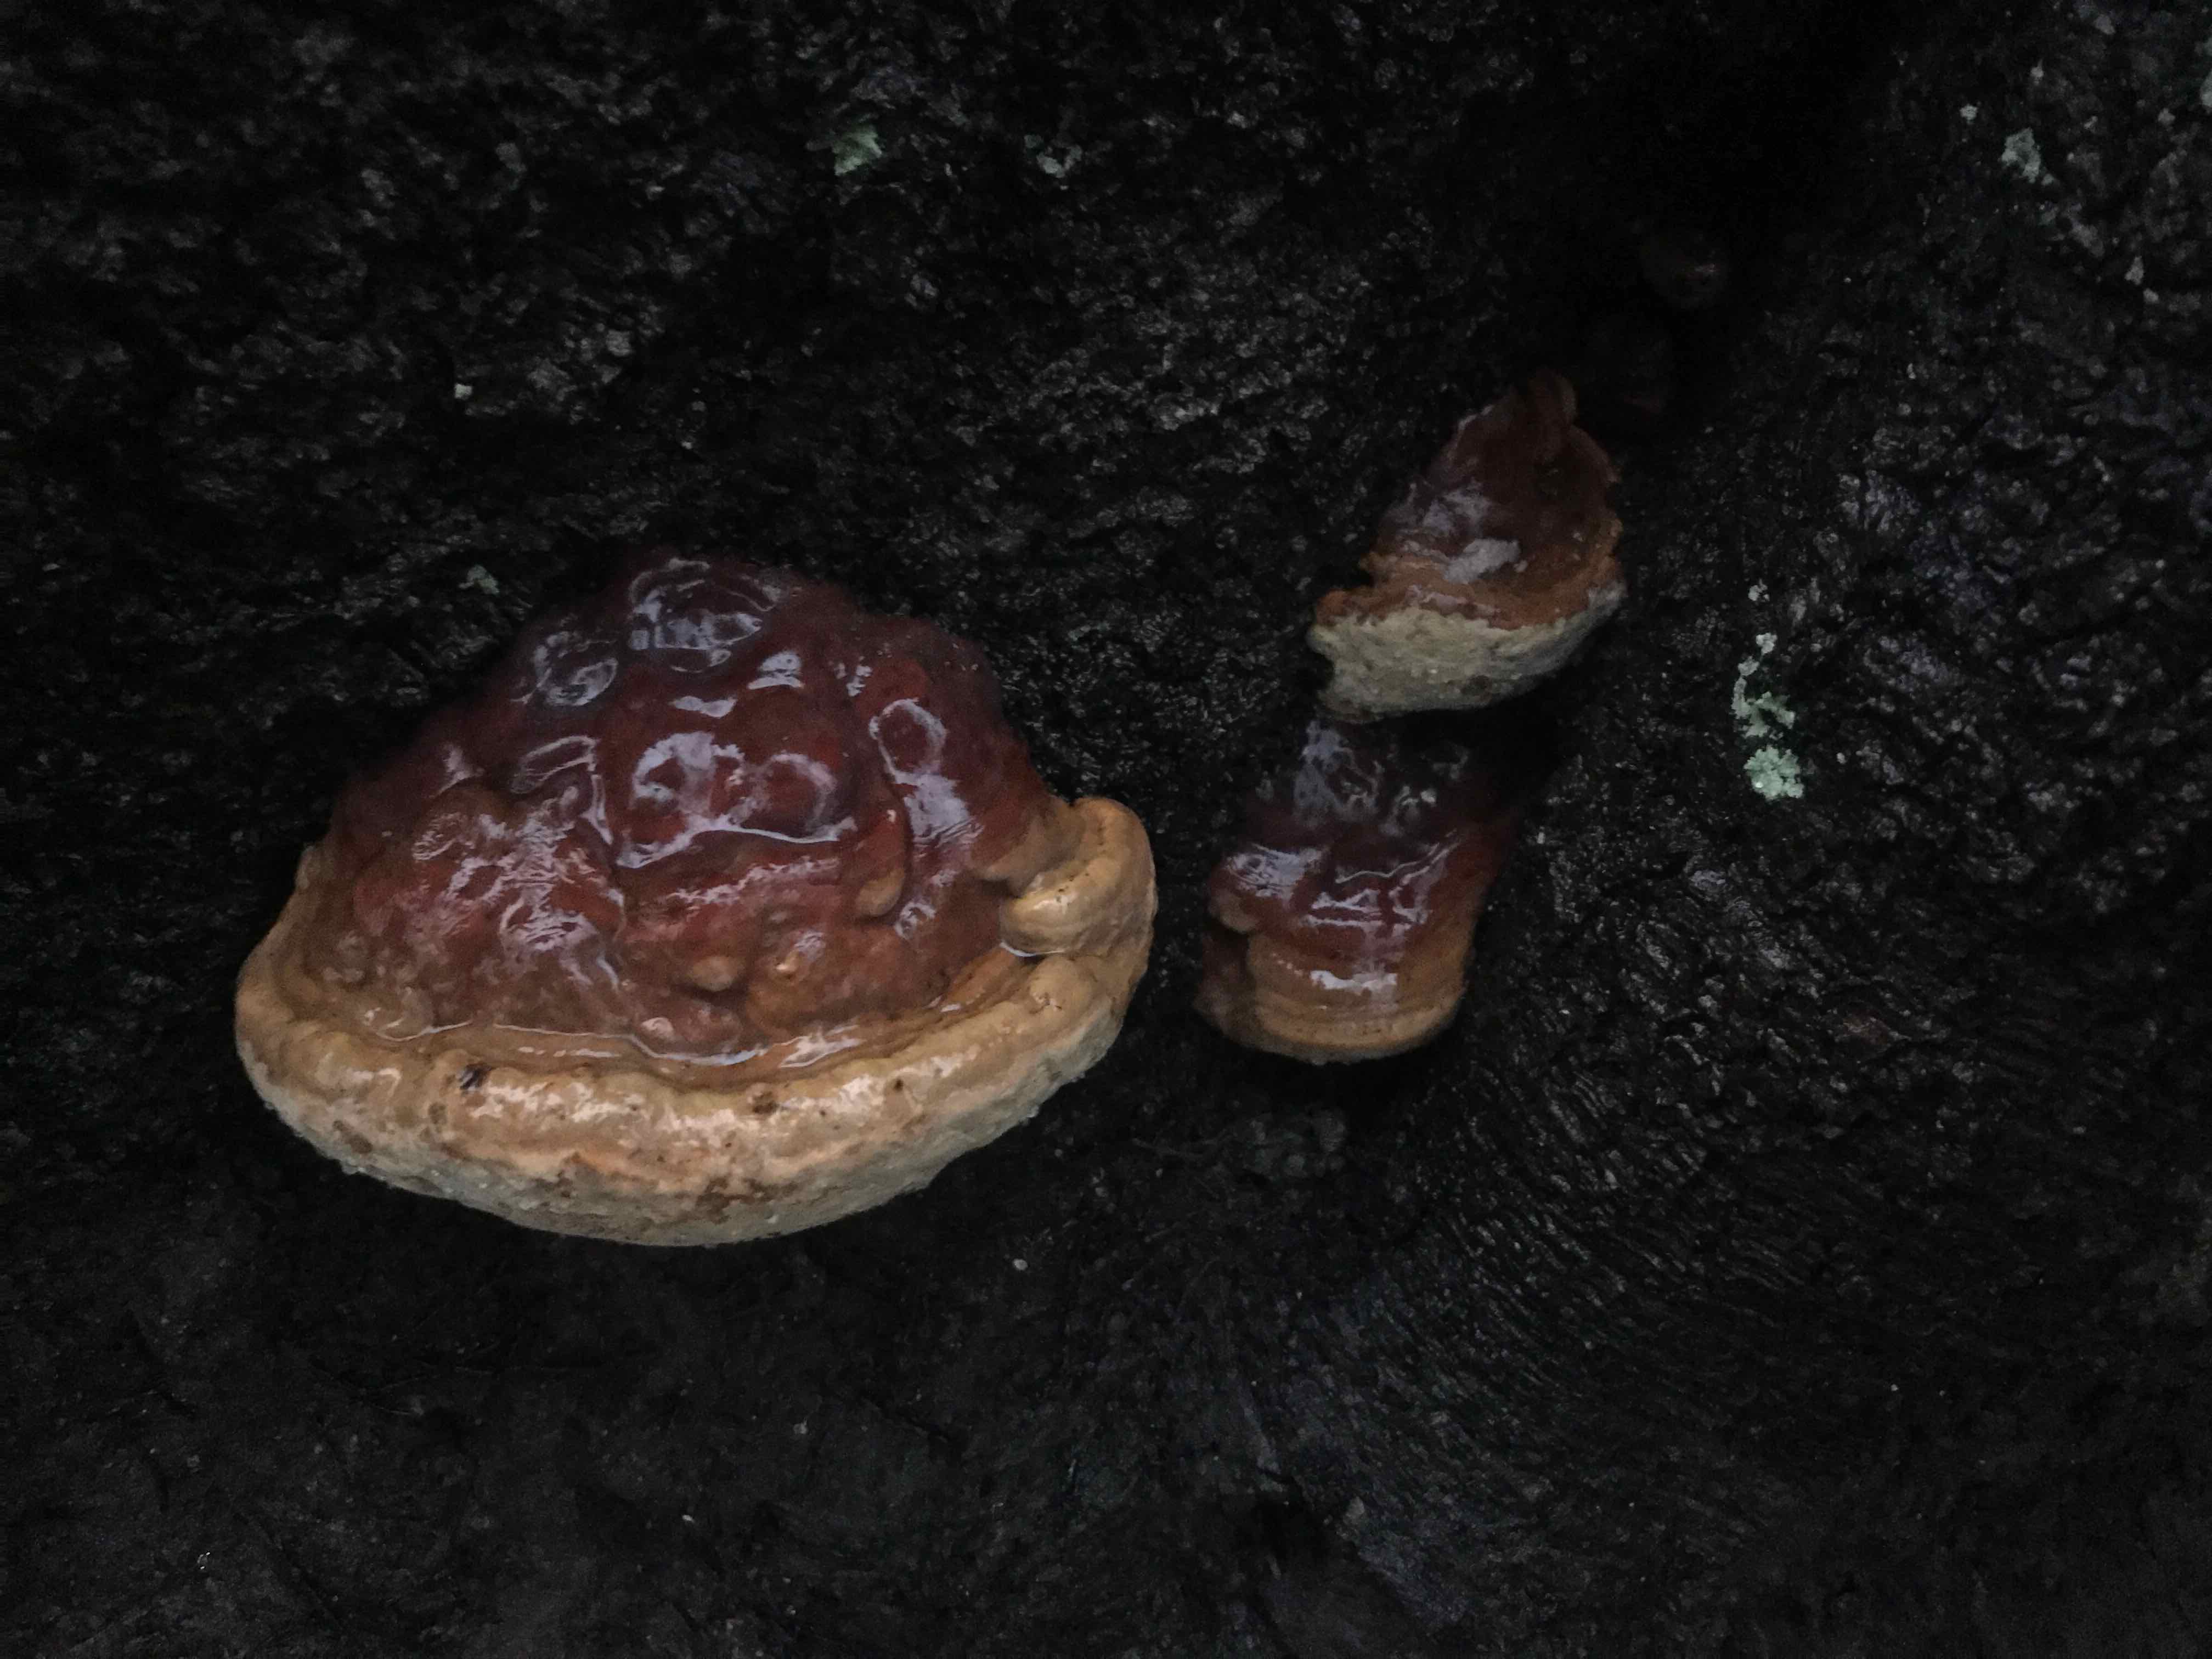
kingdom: Fungi
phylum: Basidiomycota
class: Agaricomycetes
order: Polyporales
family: Polyporaceae
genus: Ganoderma
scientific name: Ganoderma pfeifferi
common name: kobberrød lakporesvamp
